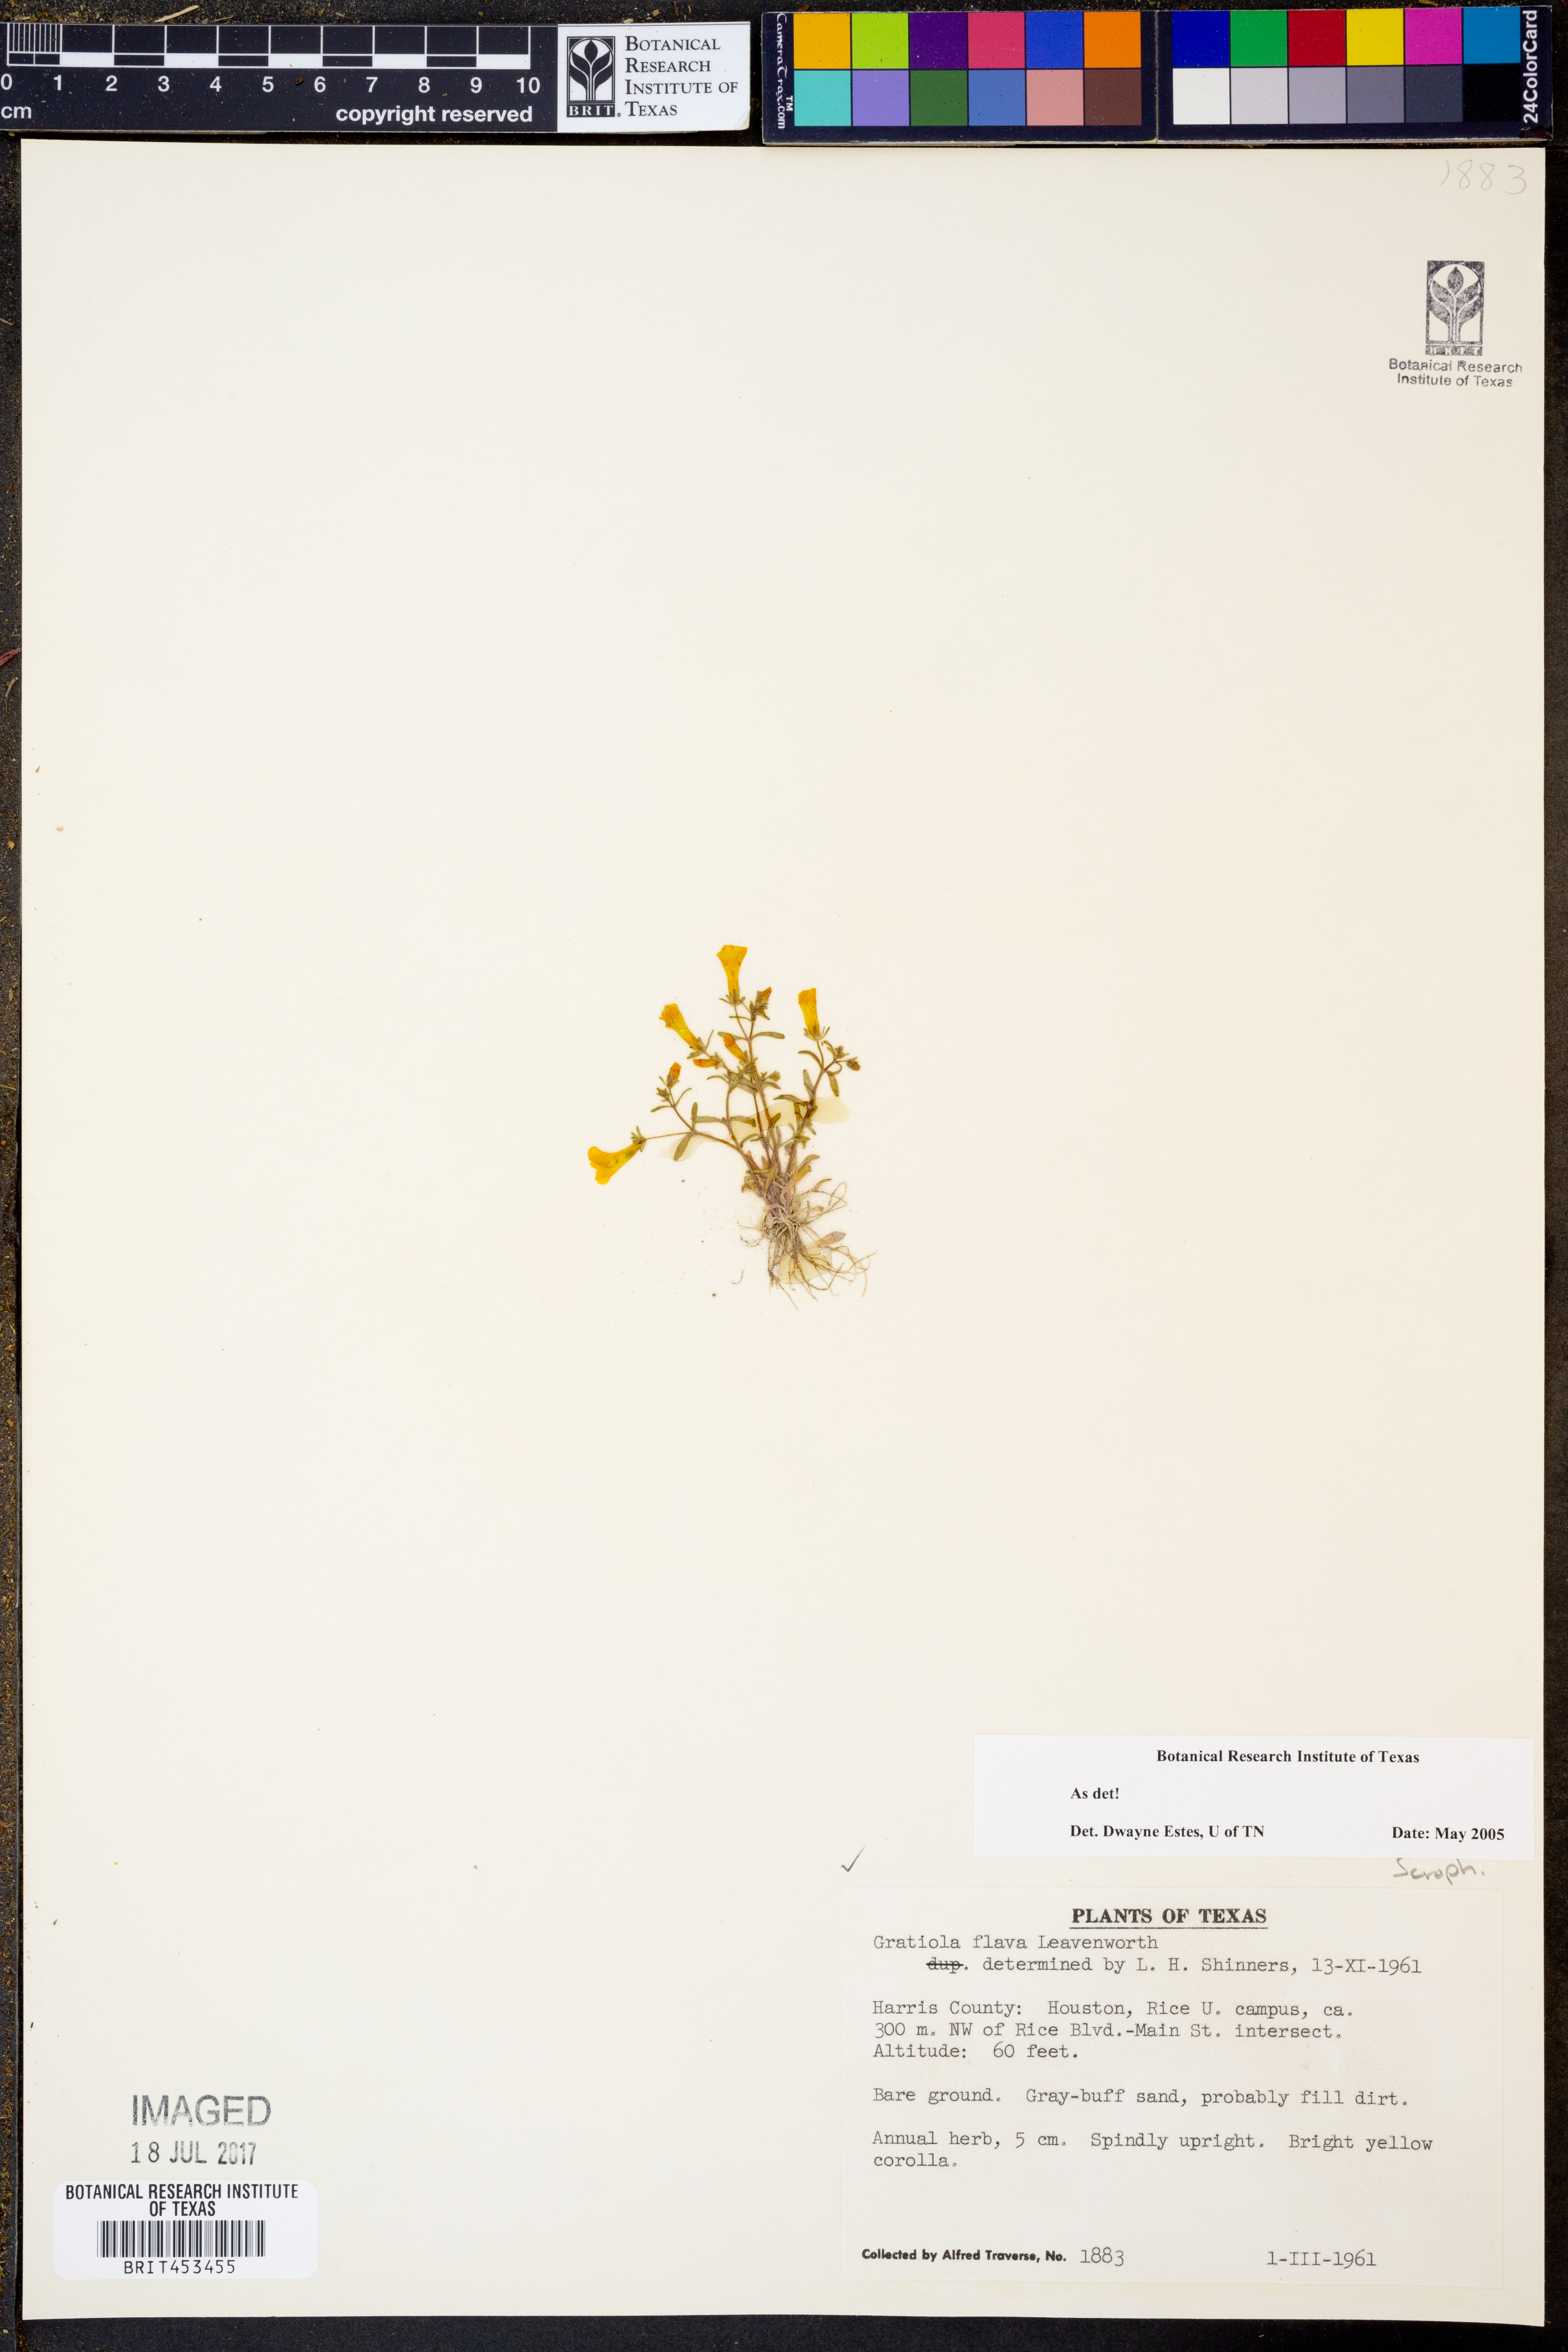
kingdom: Plantae
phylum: Tracheophyta
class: Magnoliopsida
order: Lamiales
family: Plantaginaceae
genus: Gratiola
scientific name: Gratiola flava
